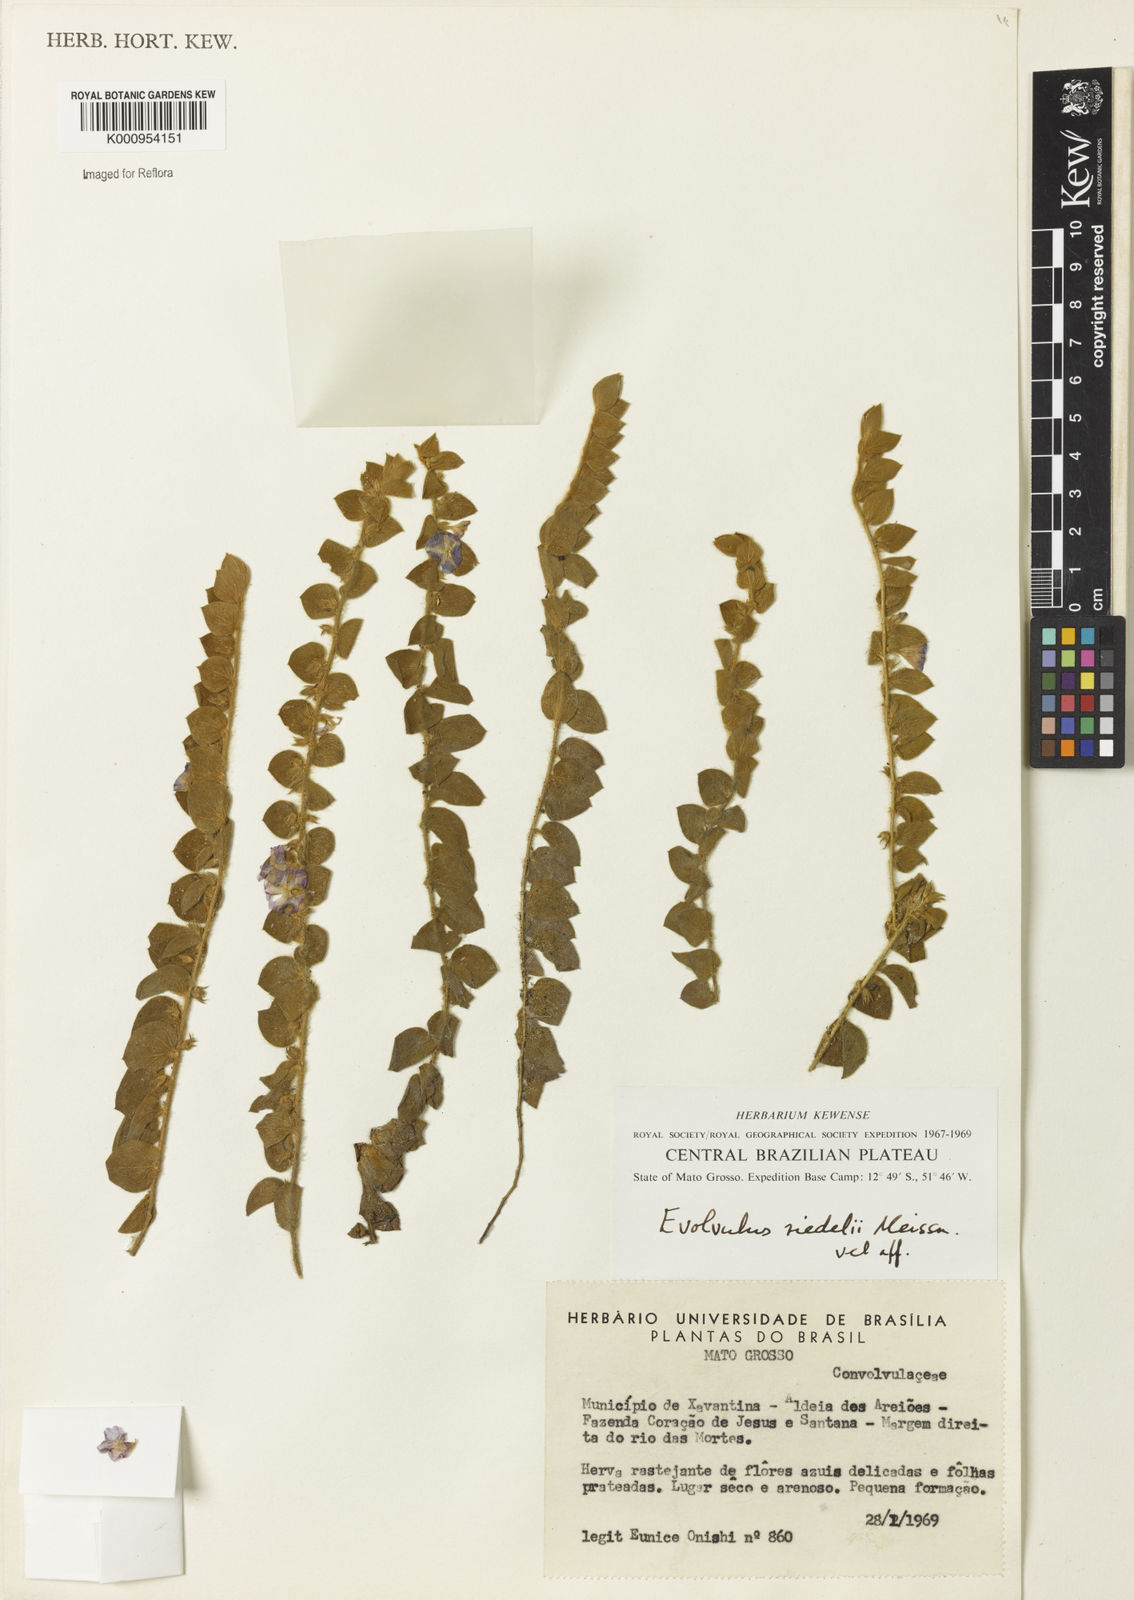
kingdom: Plantae
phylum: Tracheophyta
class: Magnoliopsida
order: Solanales
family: Convolvulaceae
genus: Evolvulus
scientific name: Evolvulus riedelii
